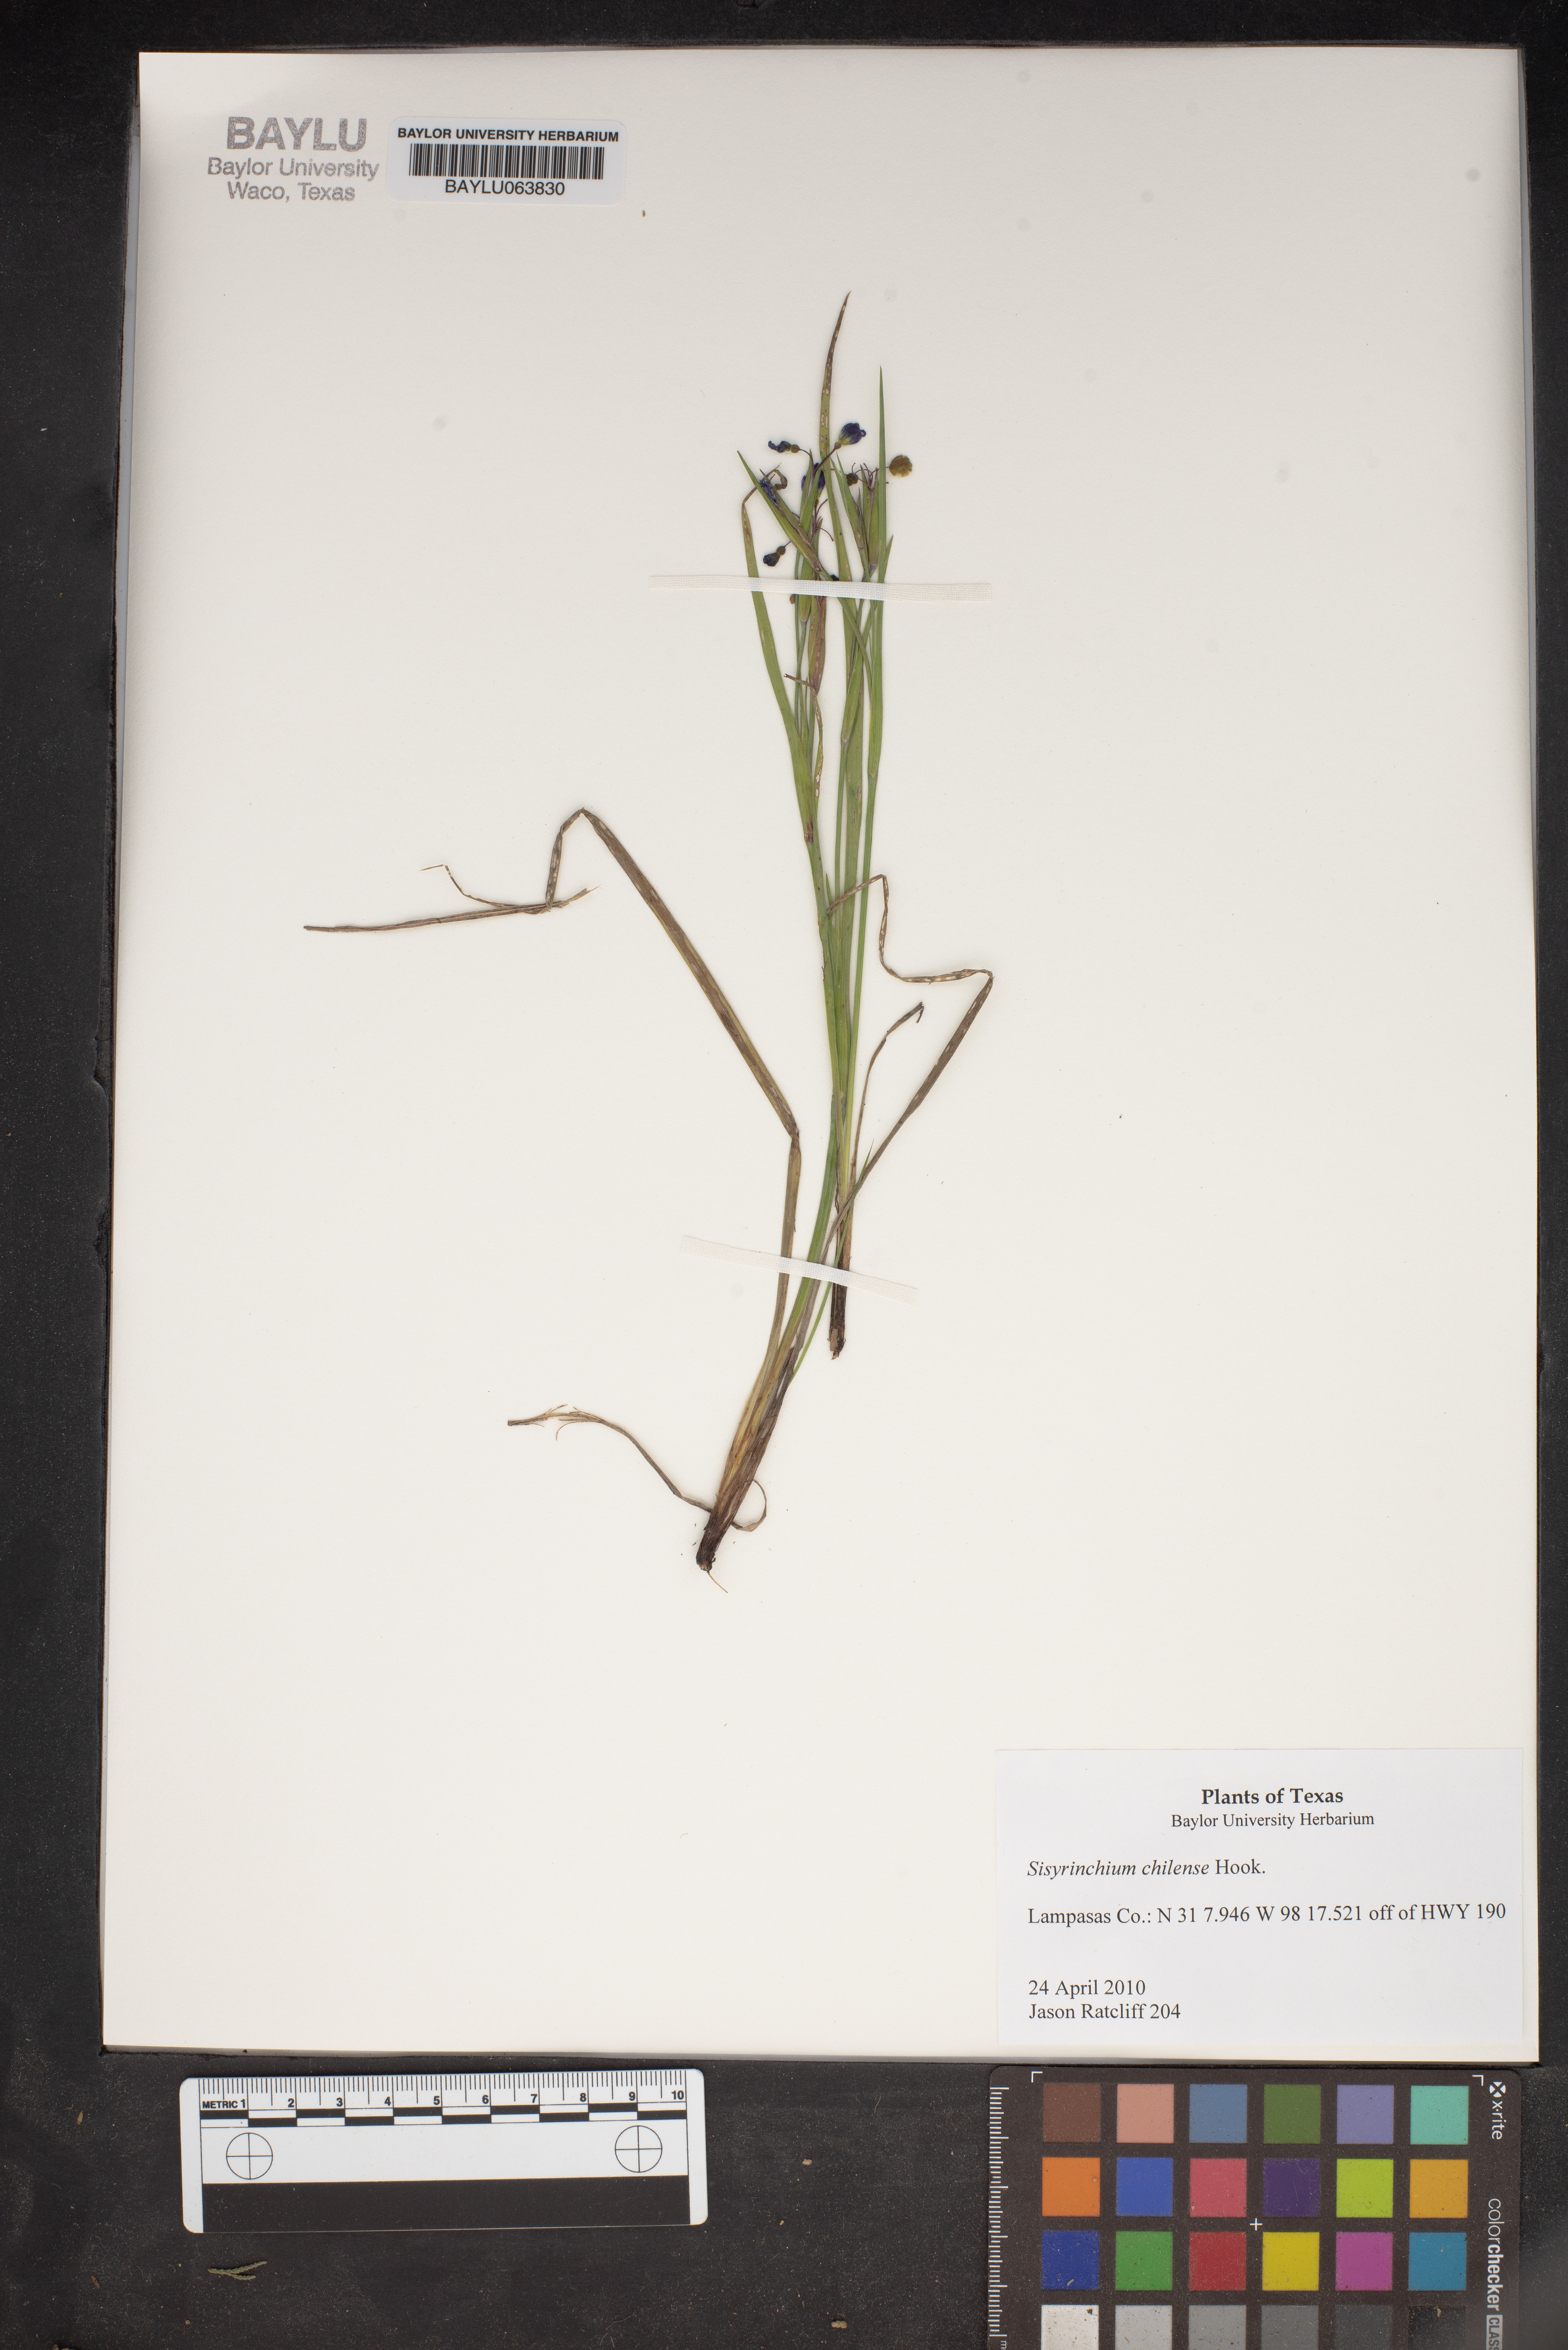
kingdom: Plantae
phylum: Tracheophyta
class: Liliopsida
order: Asparagales
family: Iridaceae
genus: Sisyrinchium
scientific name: Sisyrinchium chilense
